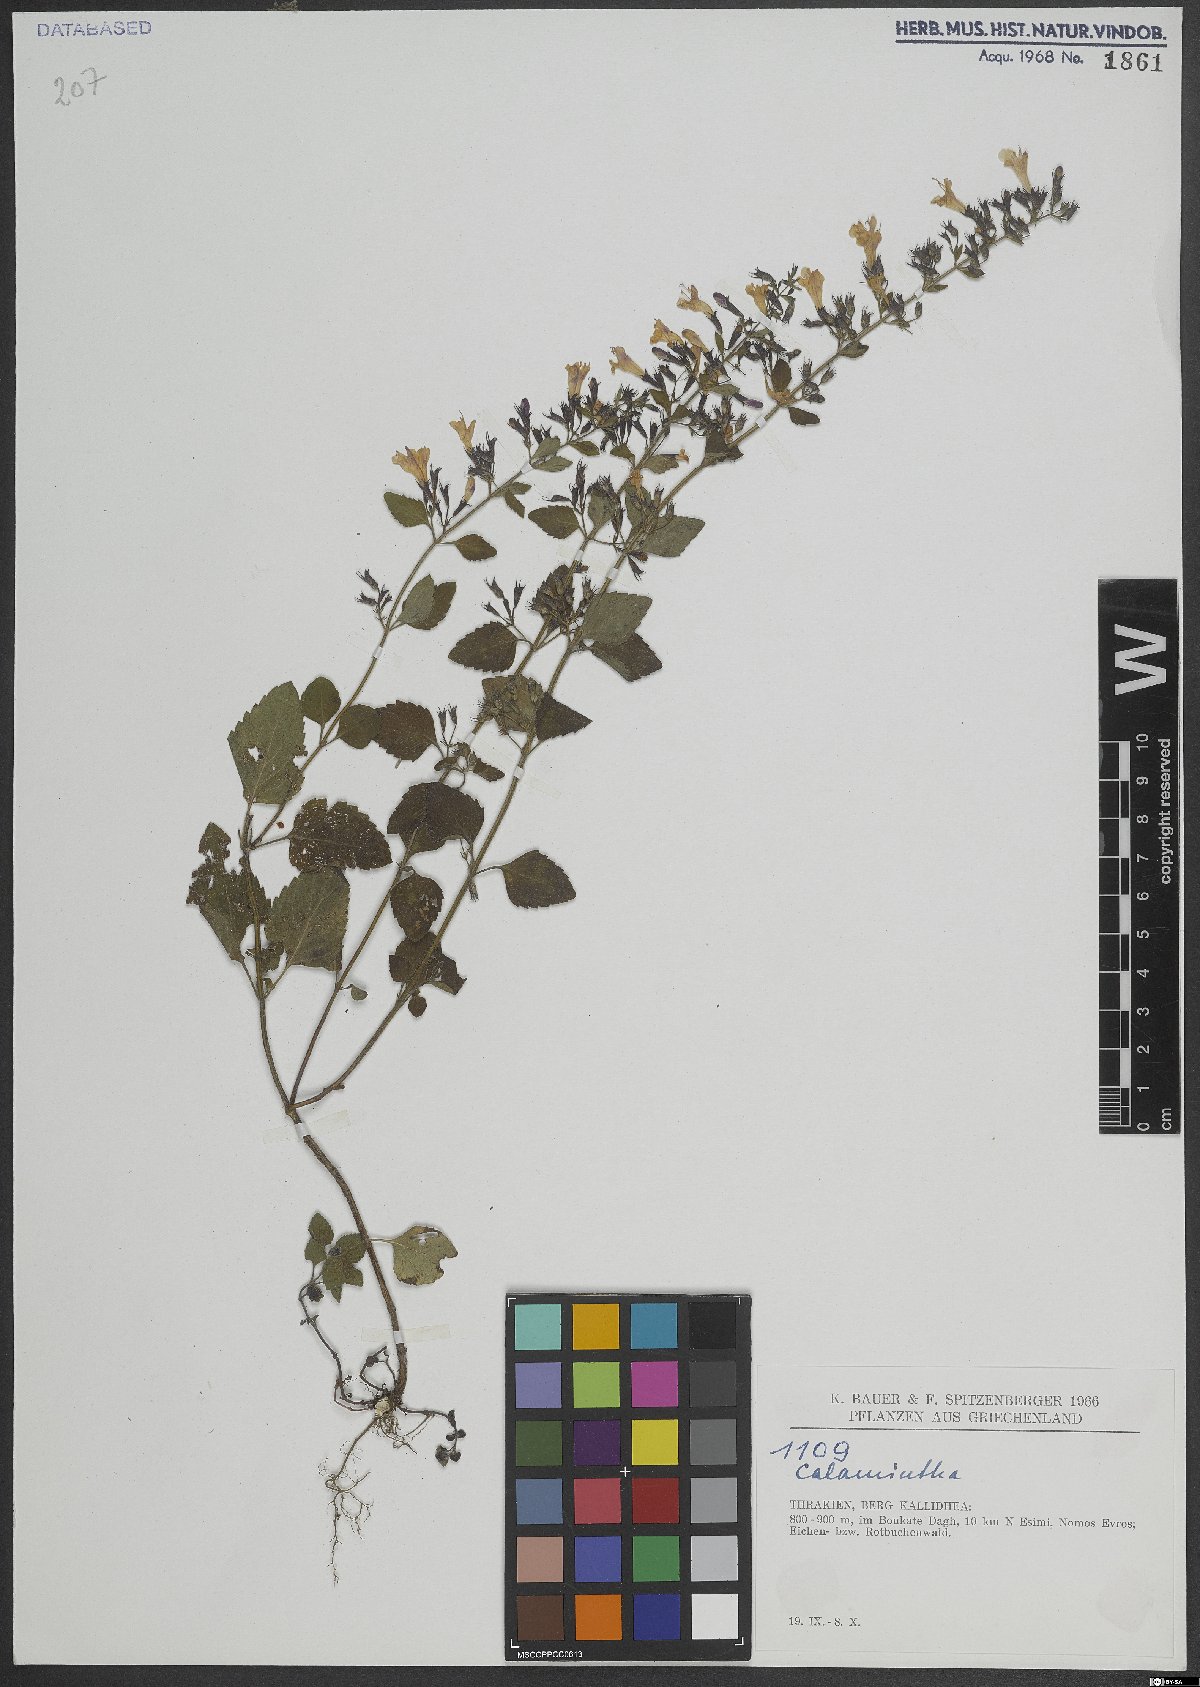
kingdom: Plantae
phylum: Tracheophyta
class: Magnoliopsida
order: Lamiales
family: Lamiaceae
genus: Calamintha
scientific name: Calamintha
